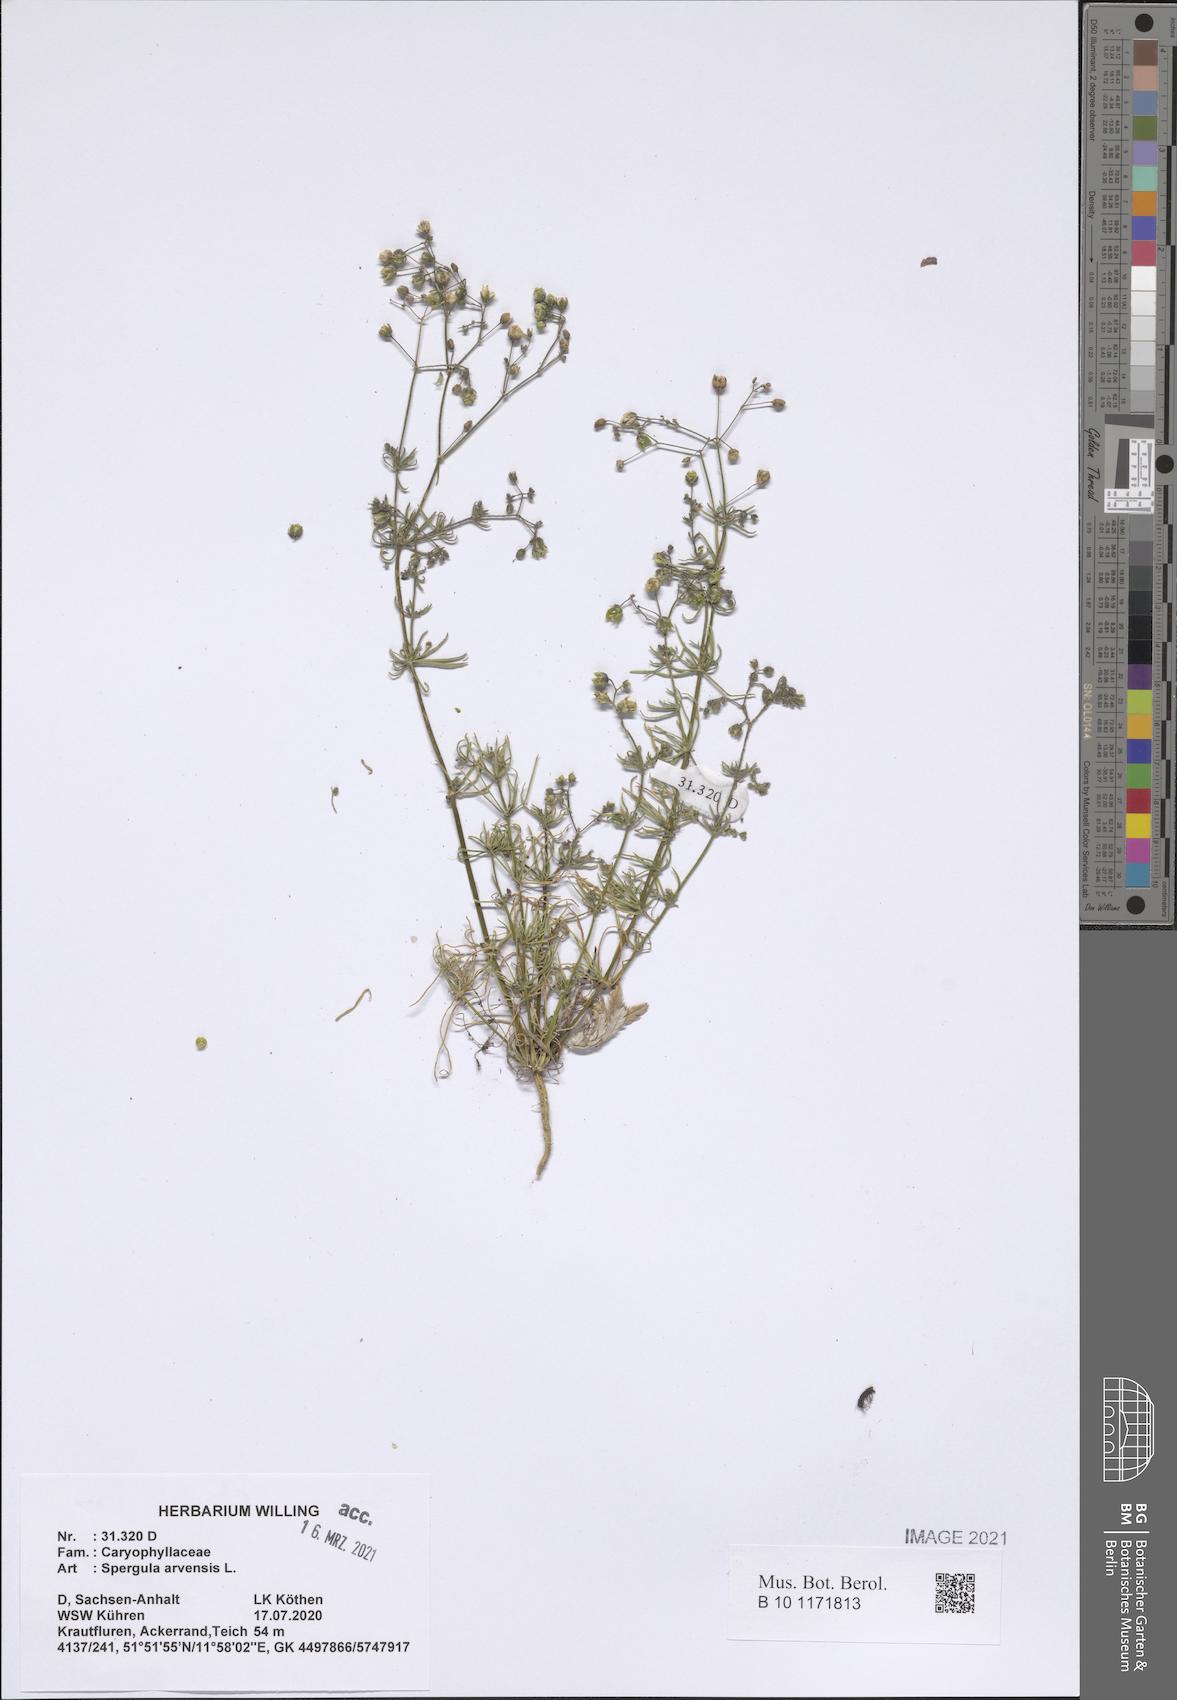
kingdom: Plantae
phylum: Tracheophyta
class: Magnoliopsida
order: Caryophyllales
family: Caryophyllaceae
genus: Spergula
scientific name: Spergula arvensis
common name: Corn spurrey
